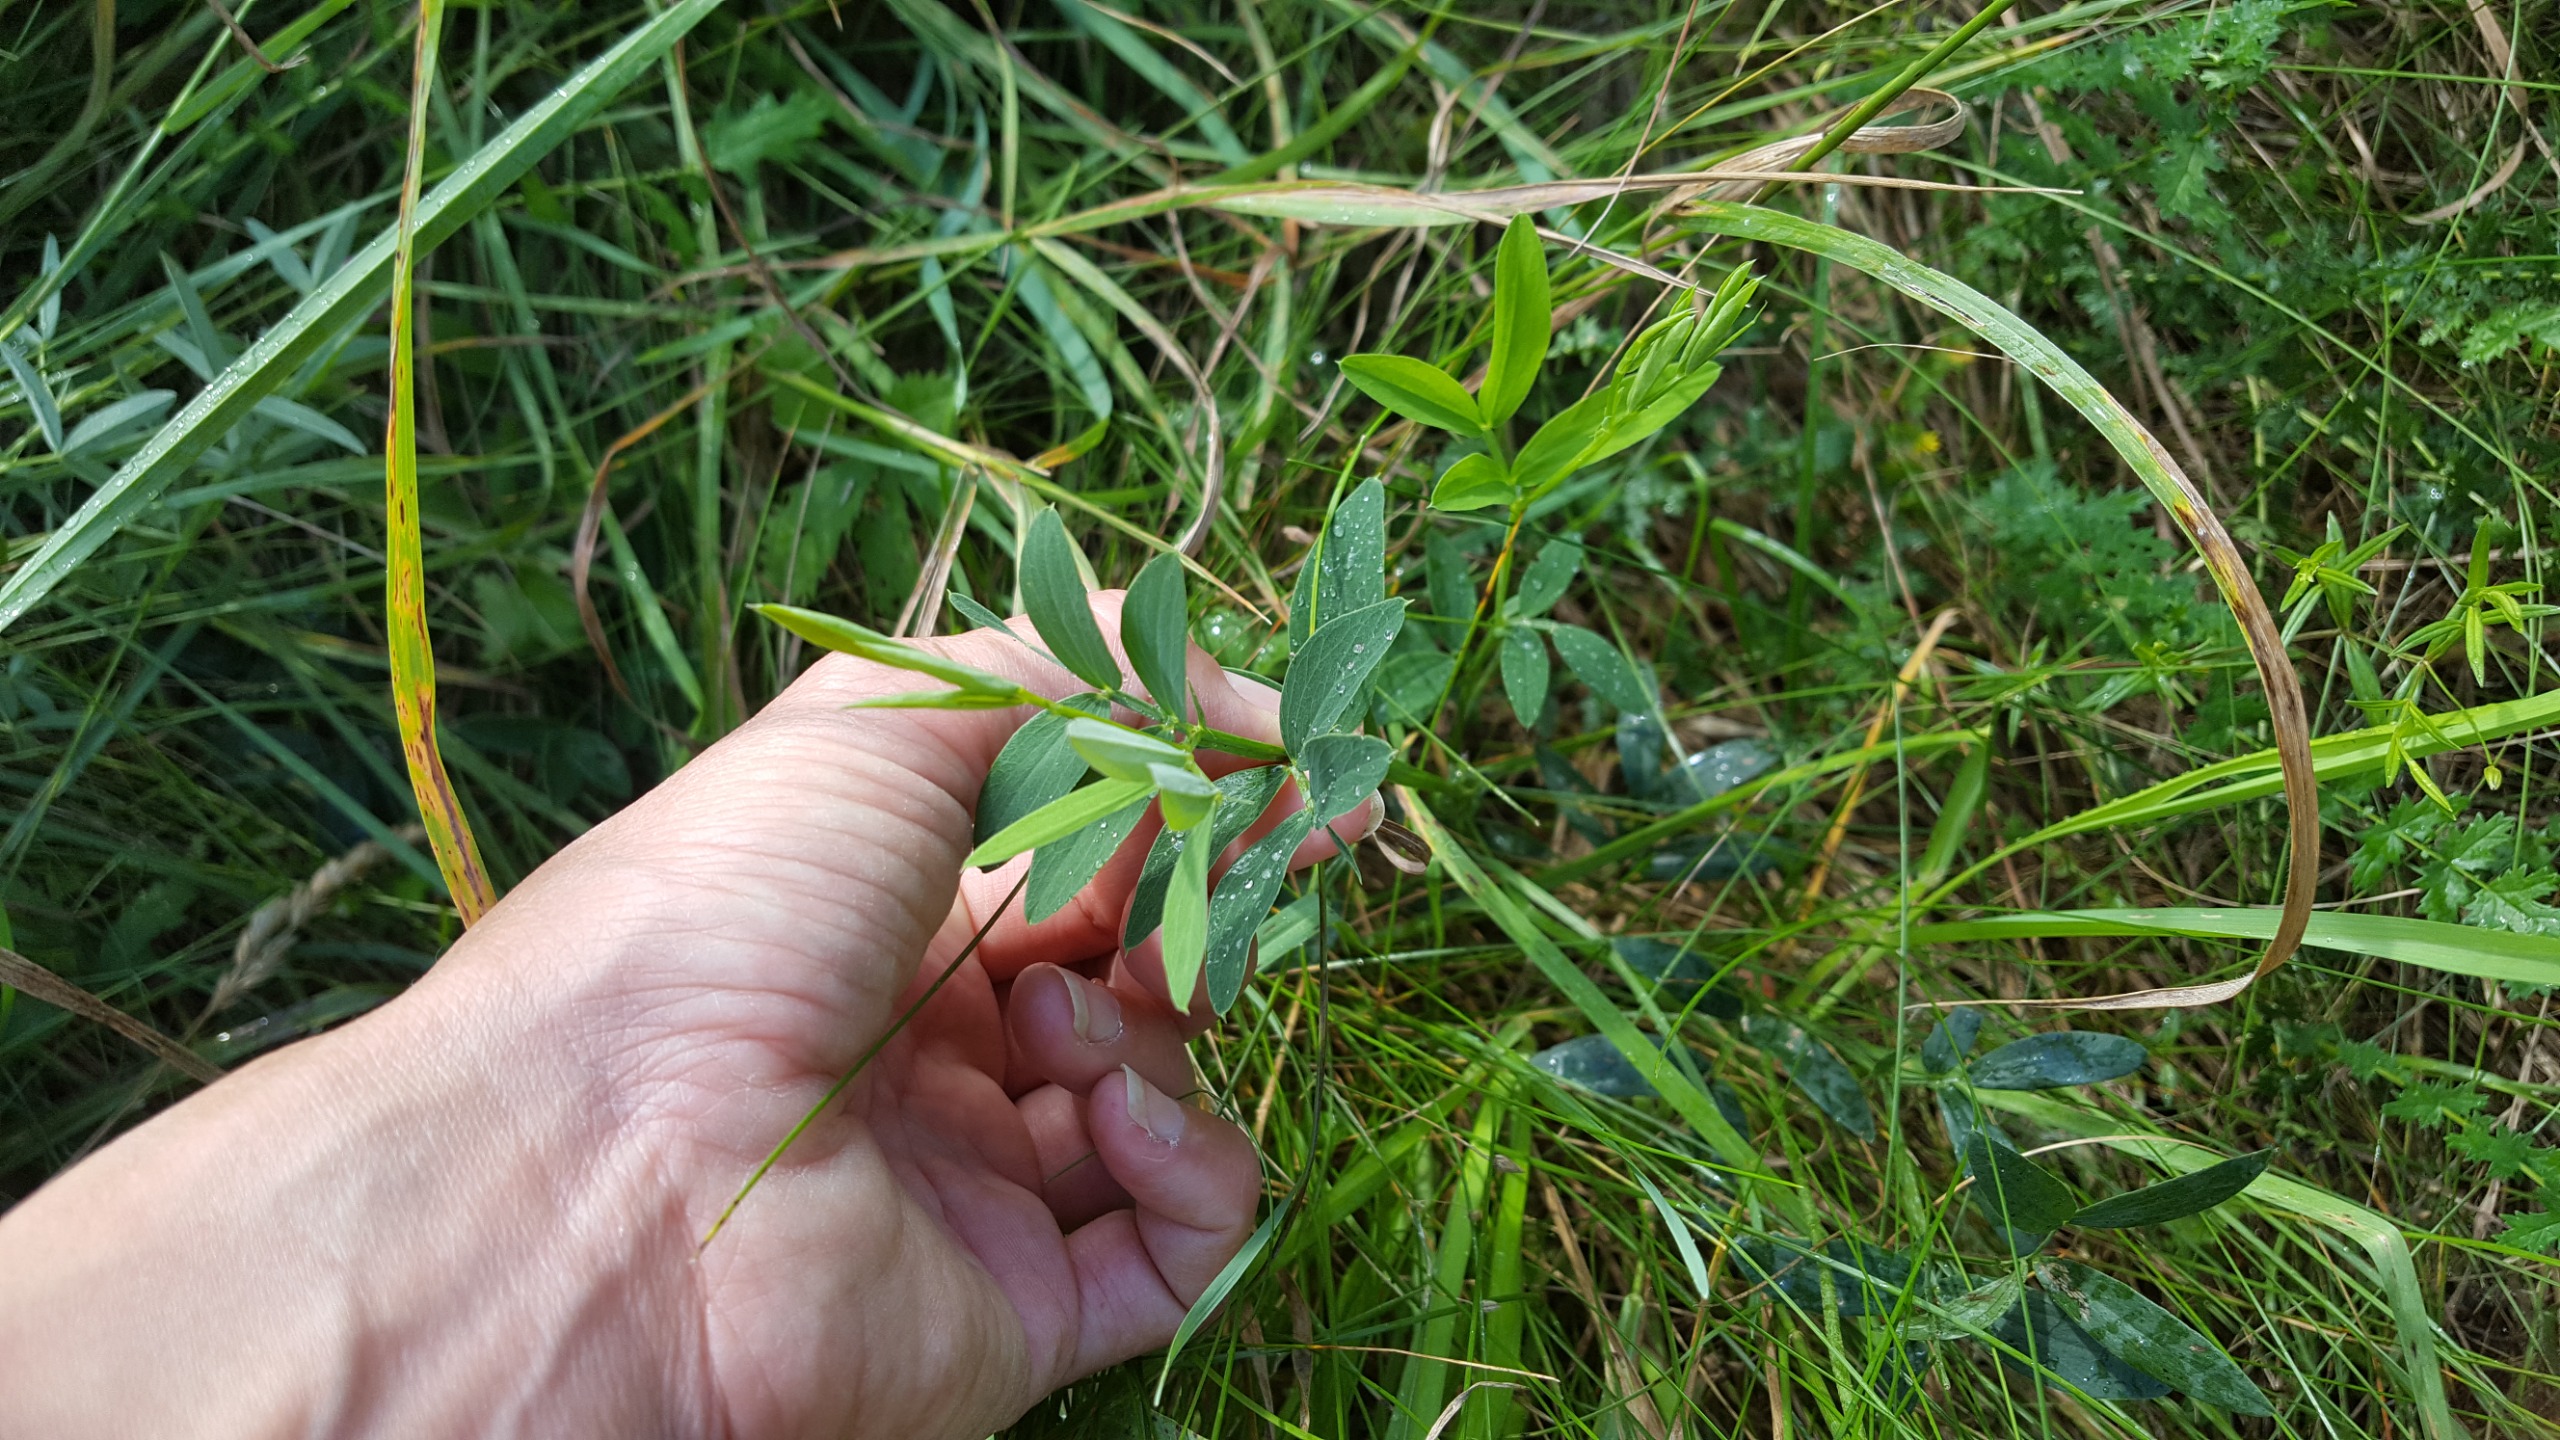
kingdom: Plantae
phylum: Tracheophyta
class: Magnoliopsida
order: Fabales
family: Fabaceae
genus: Lathyrus
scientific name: Lathyrus linifolius
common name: Krat-fladbælg
